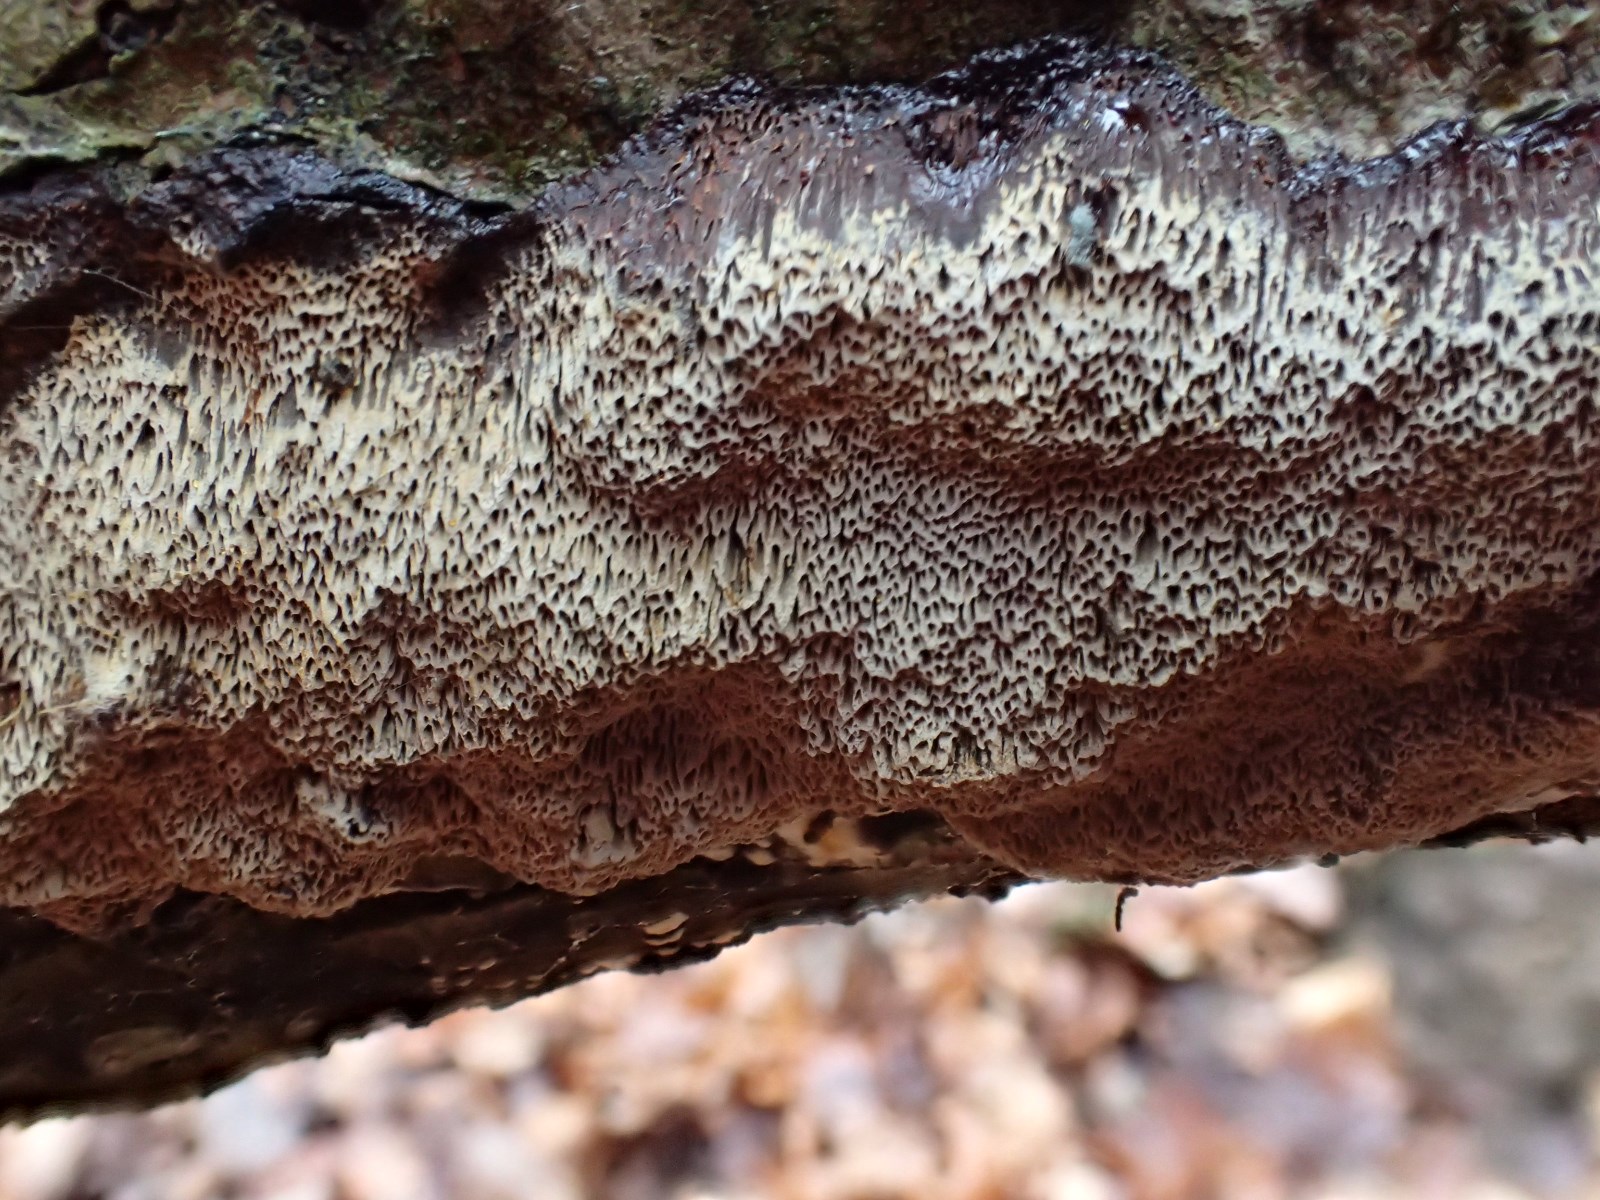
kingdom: Fungi
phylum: Basidiomycota
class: Agaricomycetes
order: Hymenochaetales
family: Hymenochaetaceae
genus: Mensularia
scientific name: Mensularia nodulosa
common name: bøge-spejlporesvamp
